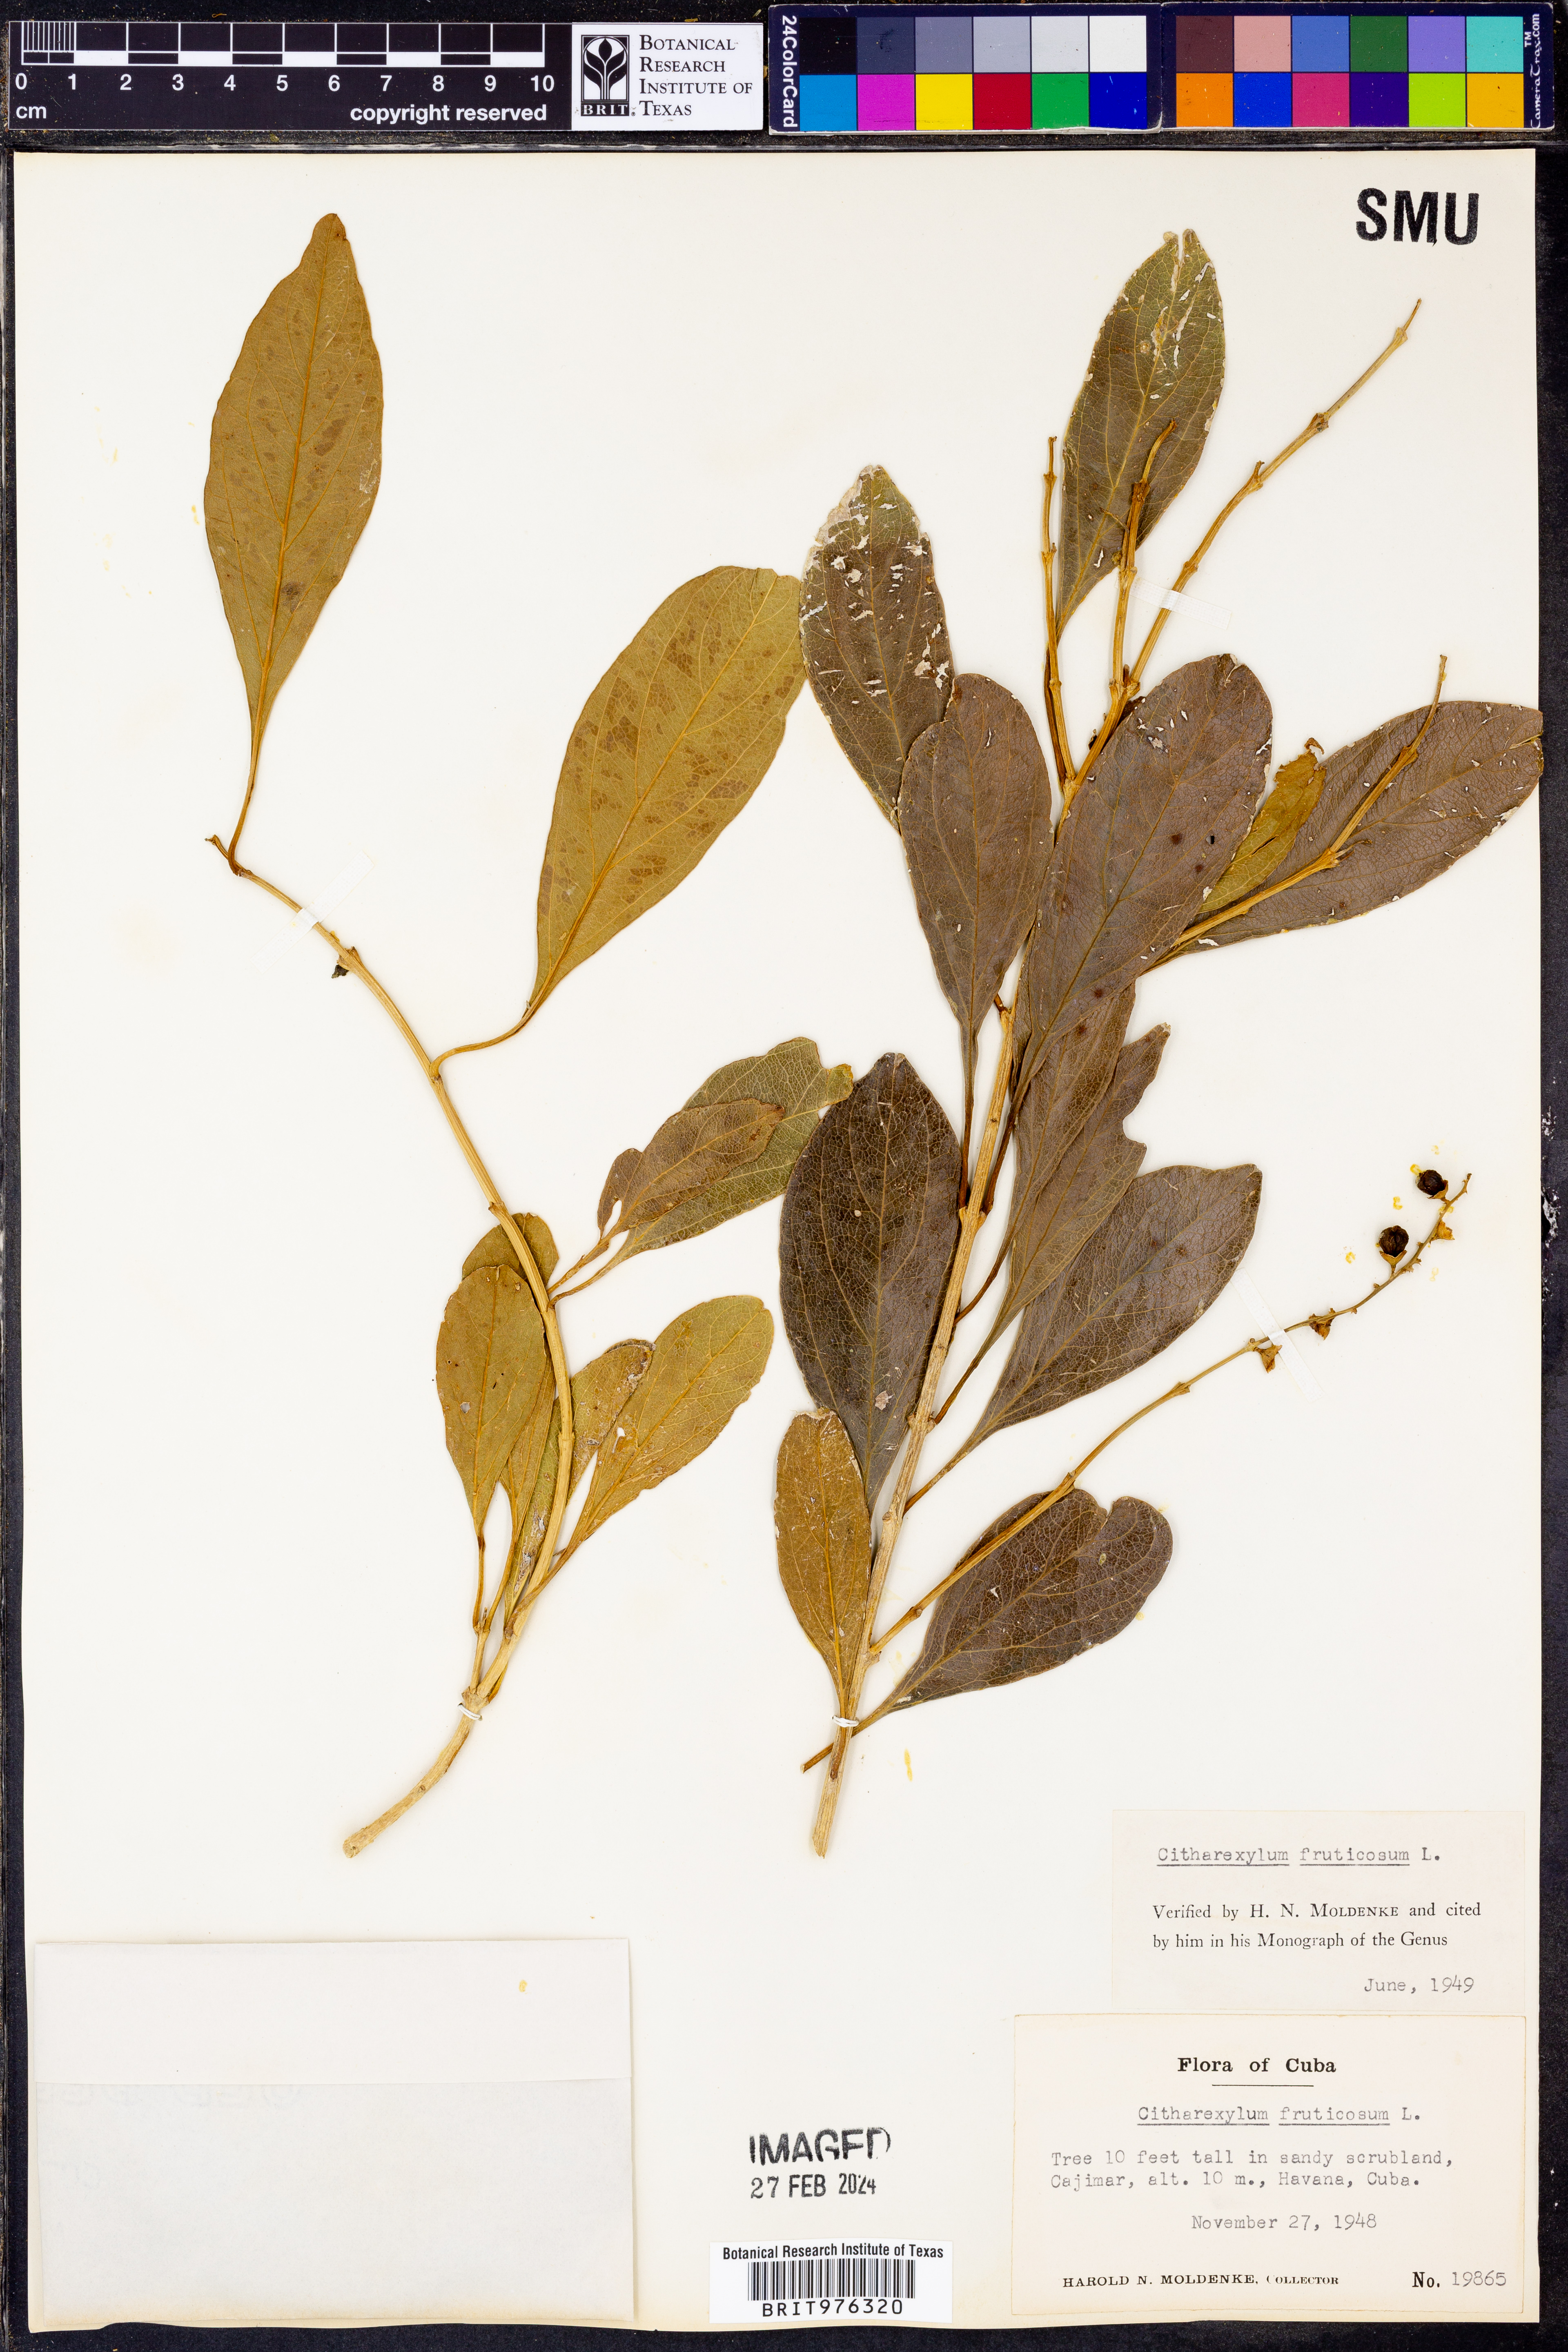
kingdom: Plantae
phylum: Tracheophyta
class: Magnoliopsida
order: Lamiales
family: Verbenaceae
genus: Citharexylum
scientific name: Citharexylum
